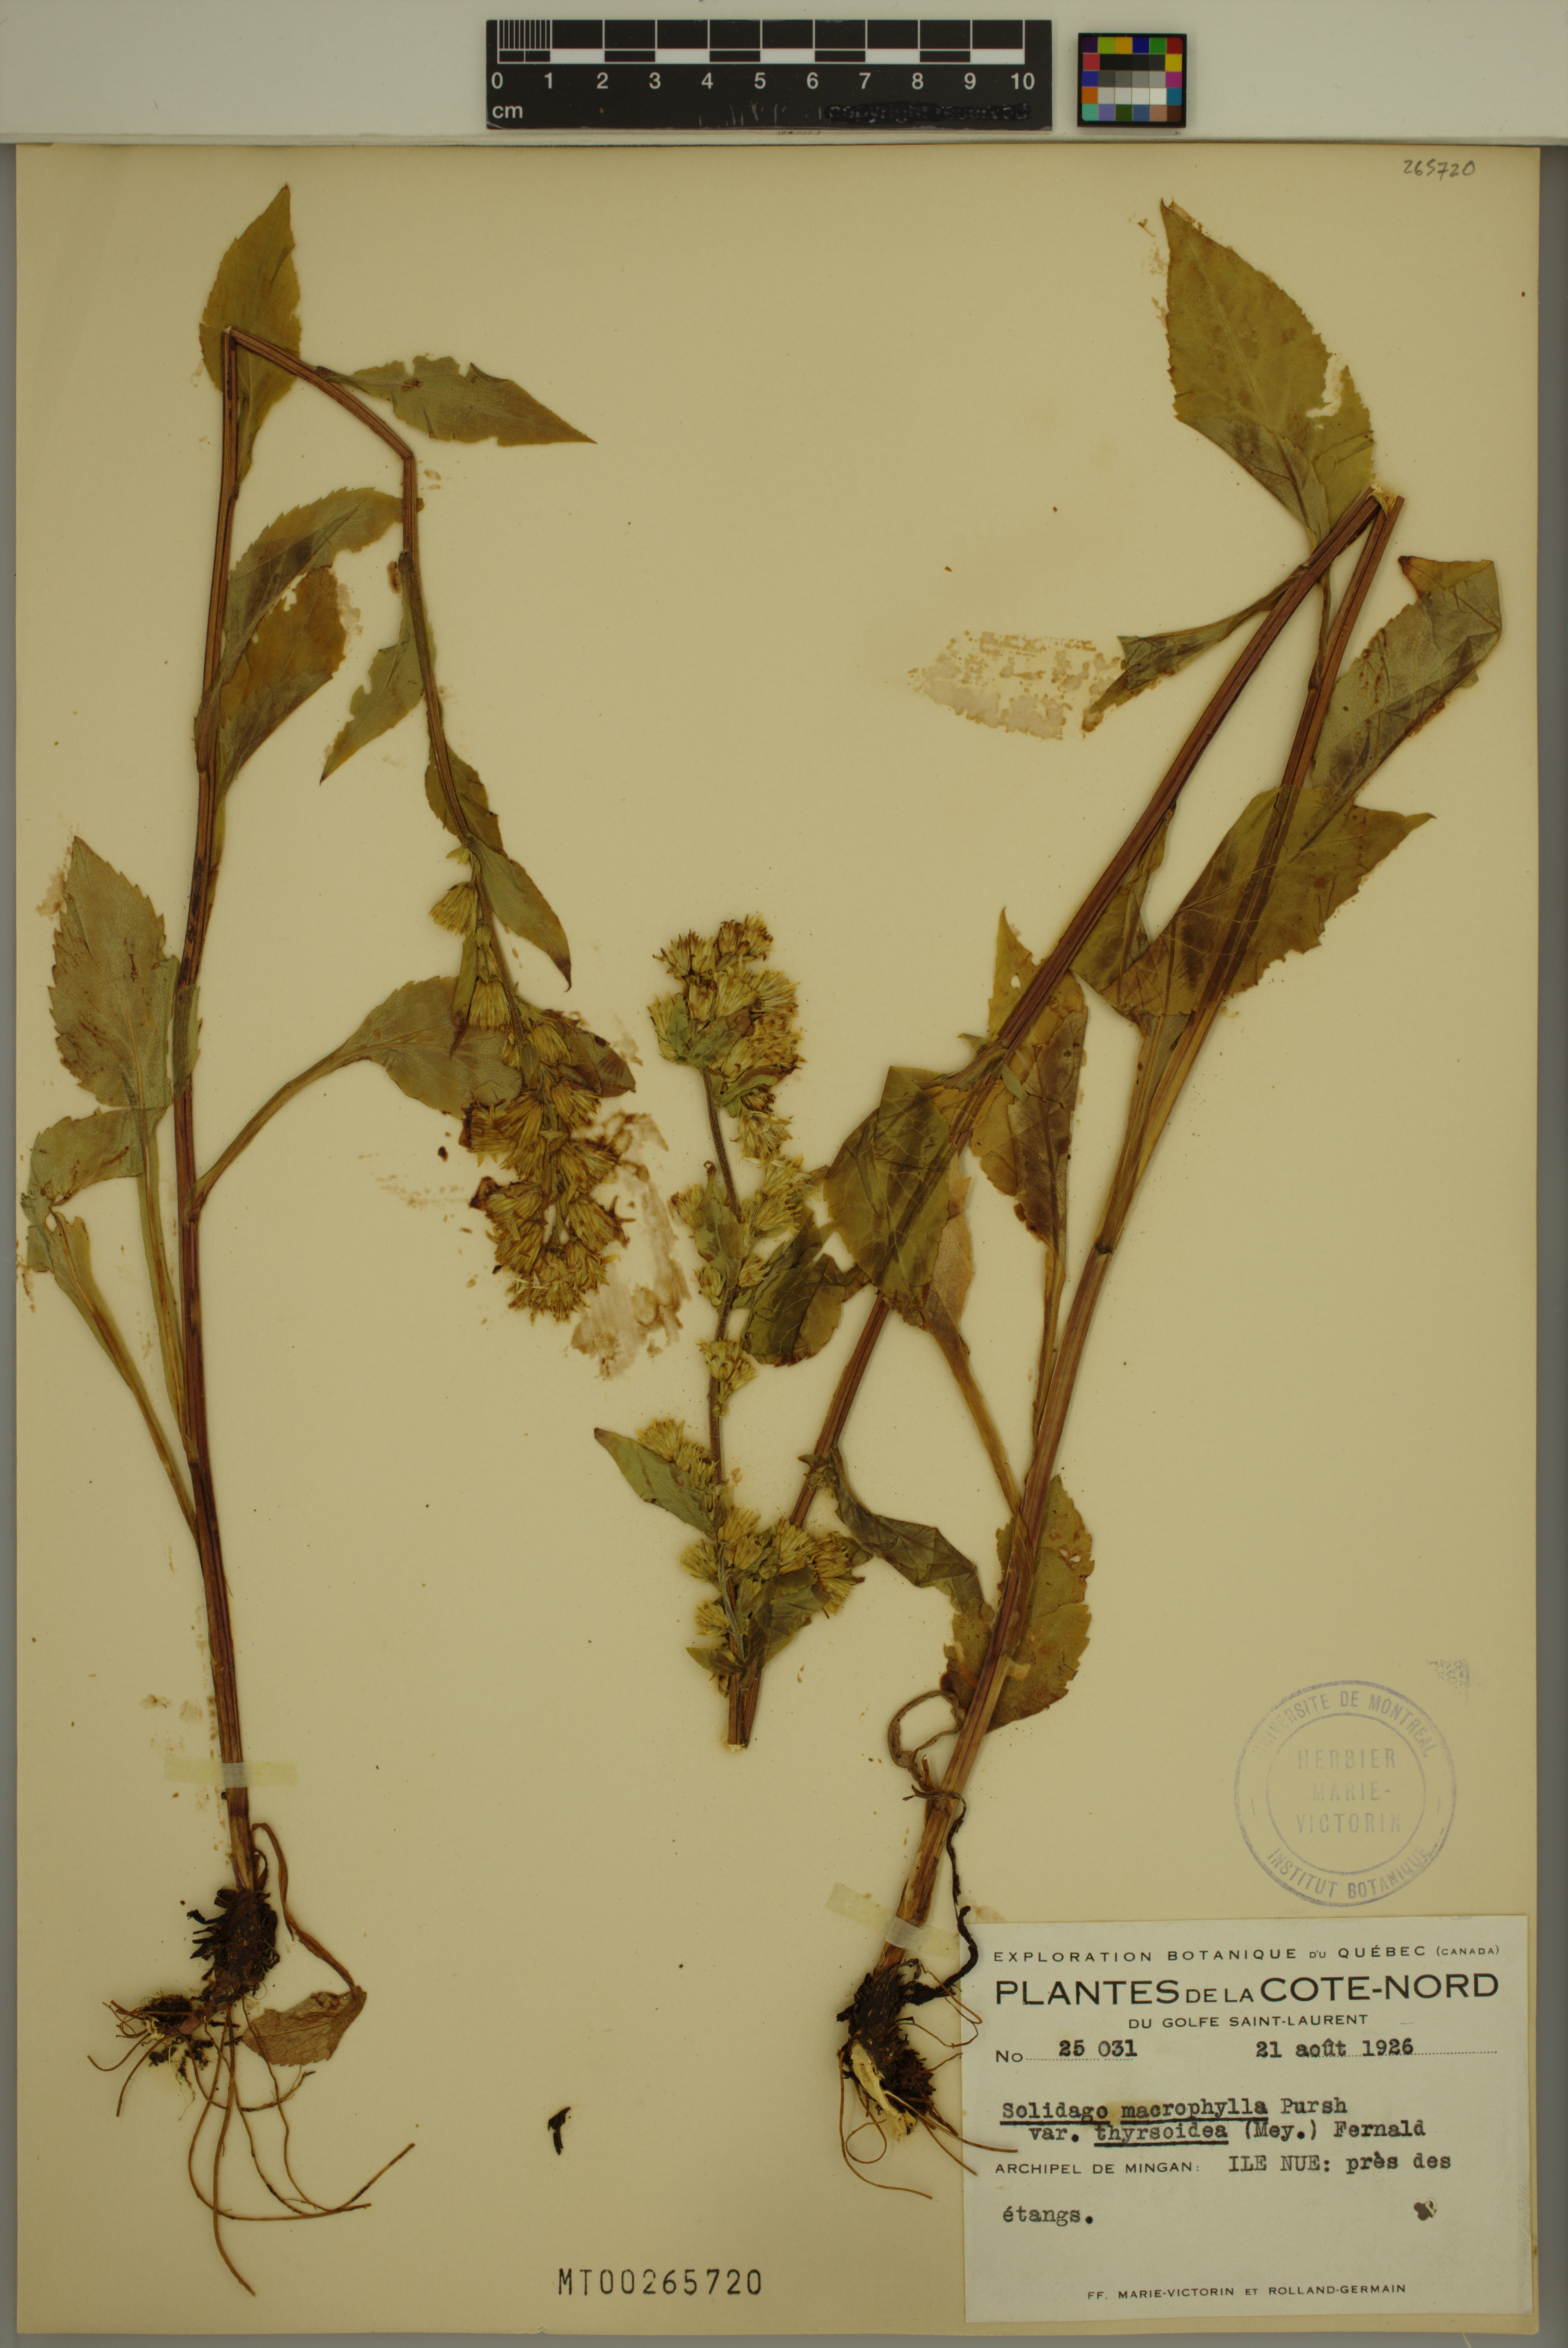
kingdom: Plantae
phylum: Tracheophyta
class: Magnoliopsida
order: Asterales
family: Asteraceae
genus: Solidago
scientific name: Solidago macrophylla
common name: Large-leaved goldenrod
